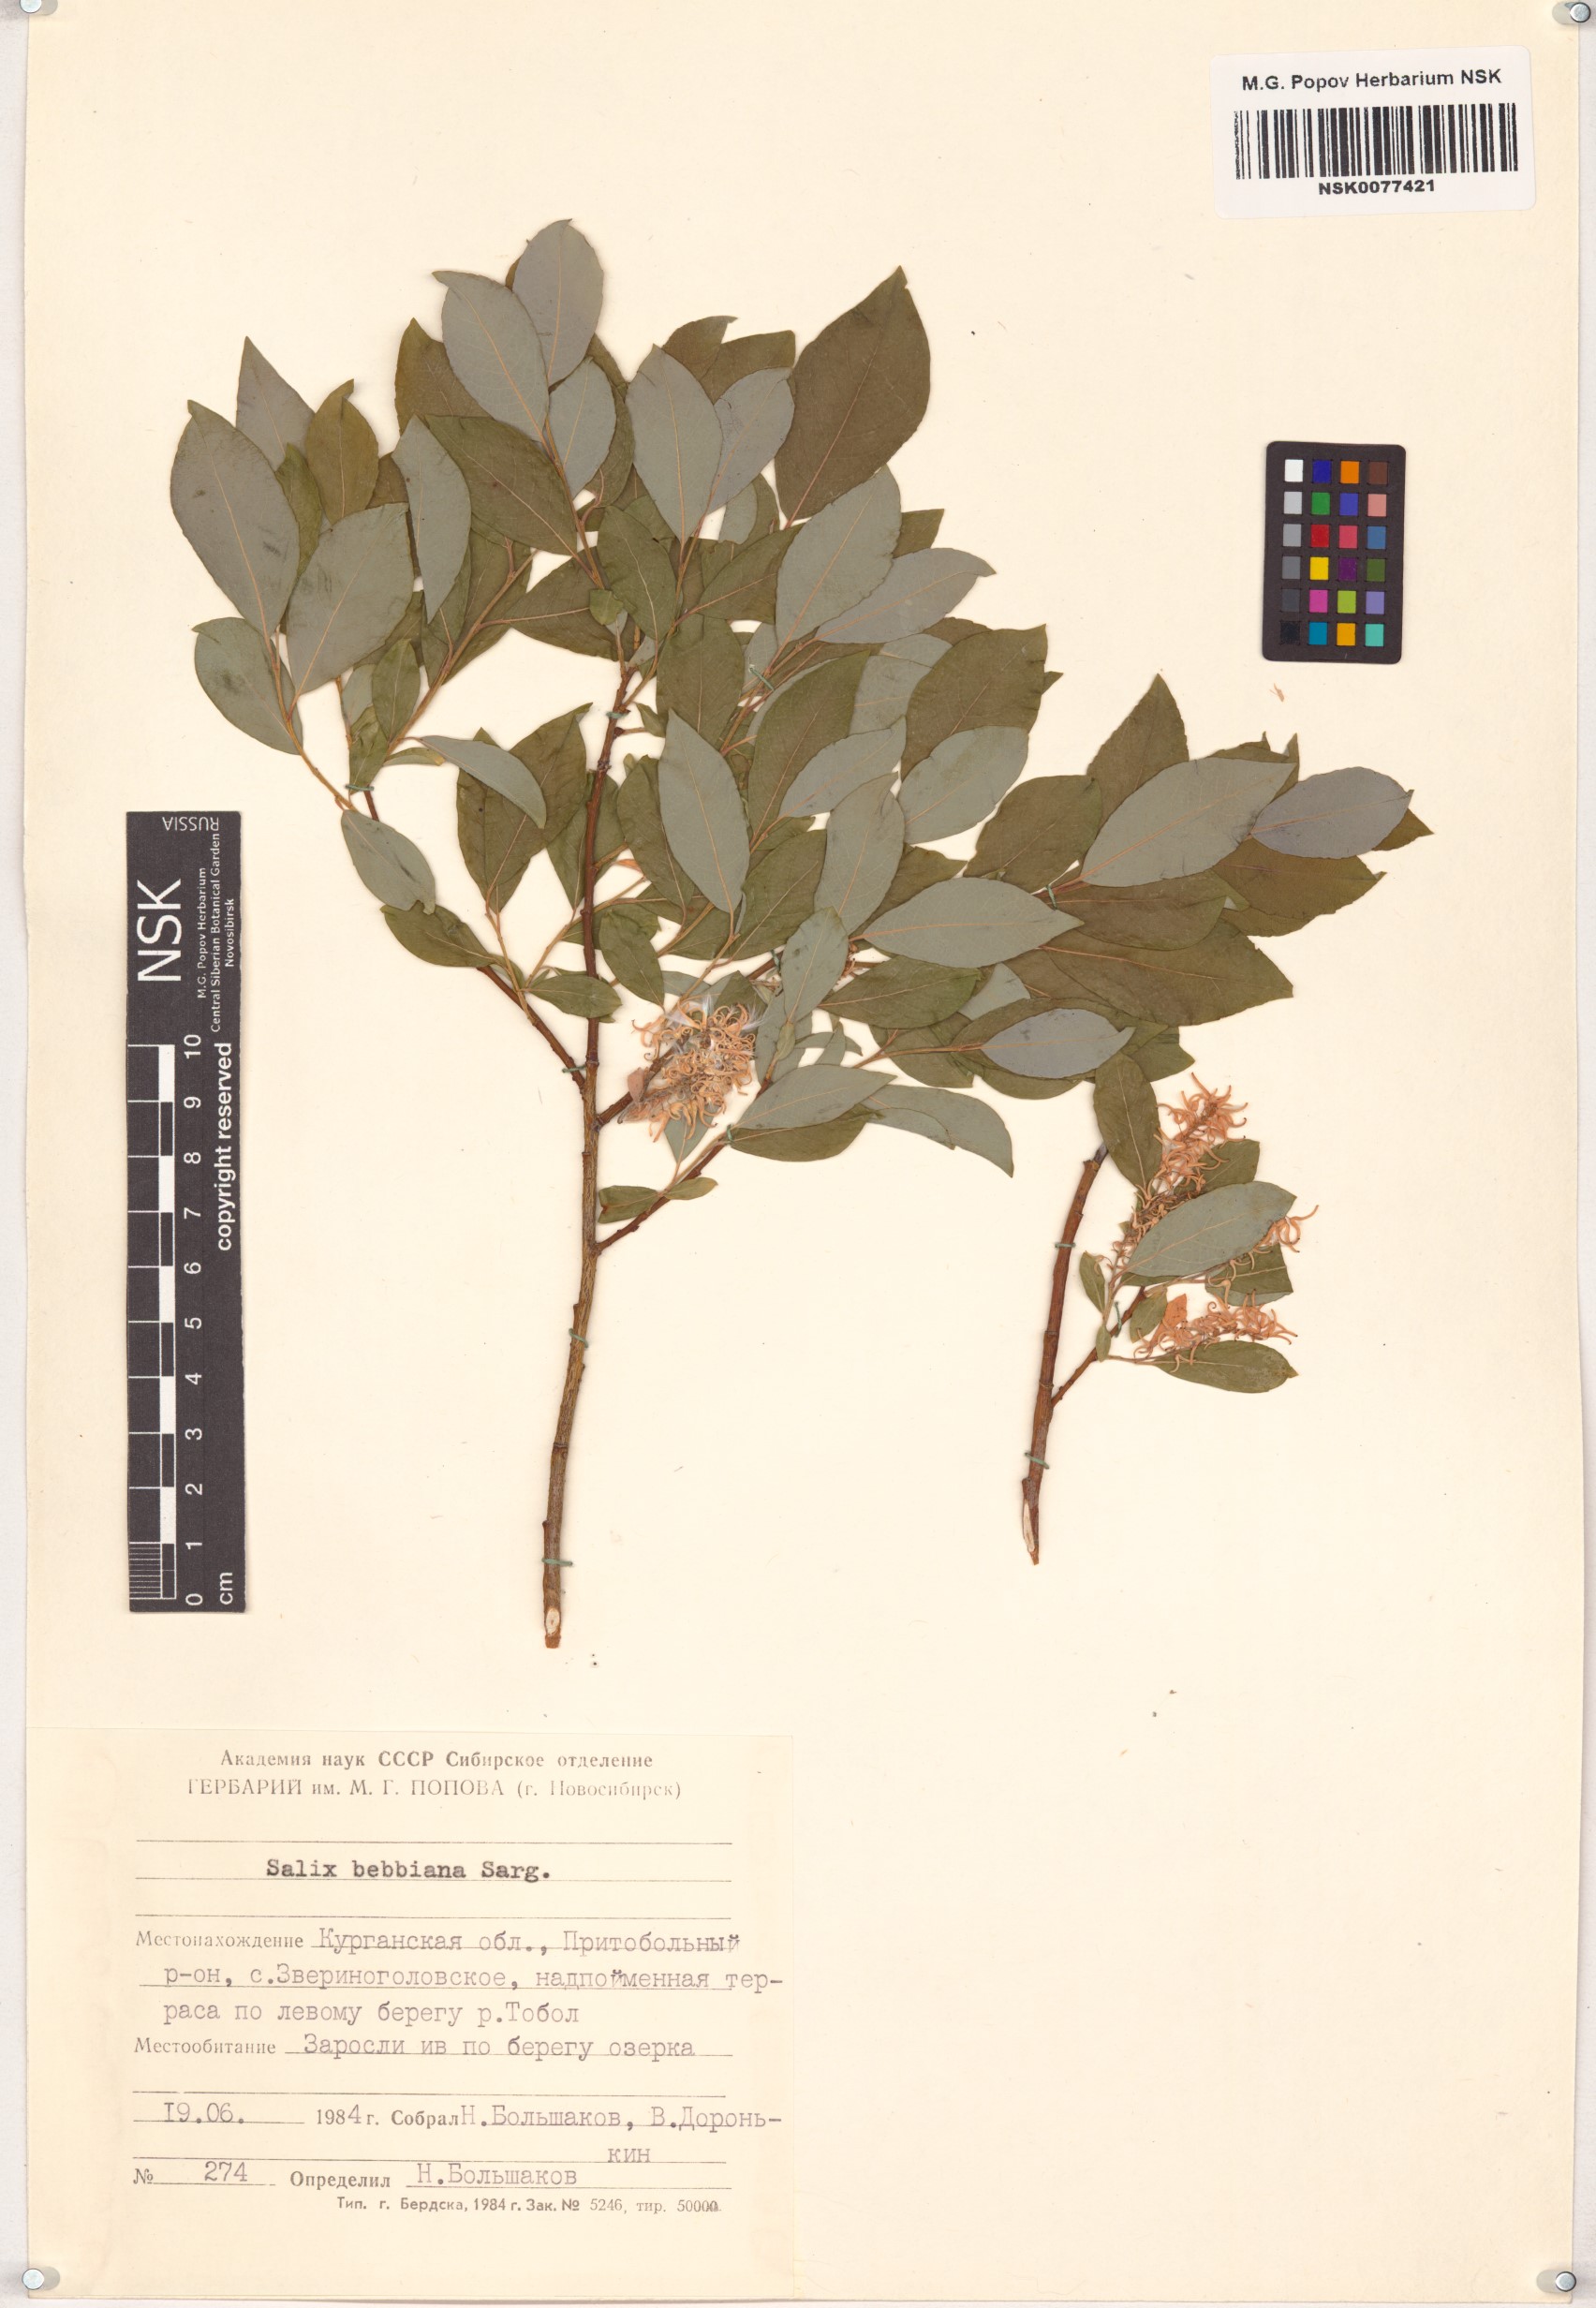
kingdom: Plantae
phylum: Tracheophyta
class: Magnoliopsida
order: Malpighiales
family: Salicaceae
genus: Salix
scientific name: Salix bebbiana
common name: Bebb's willow
